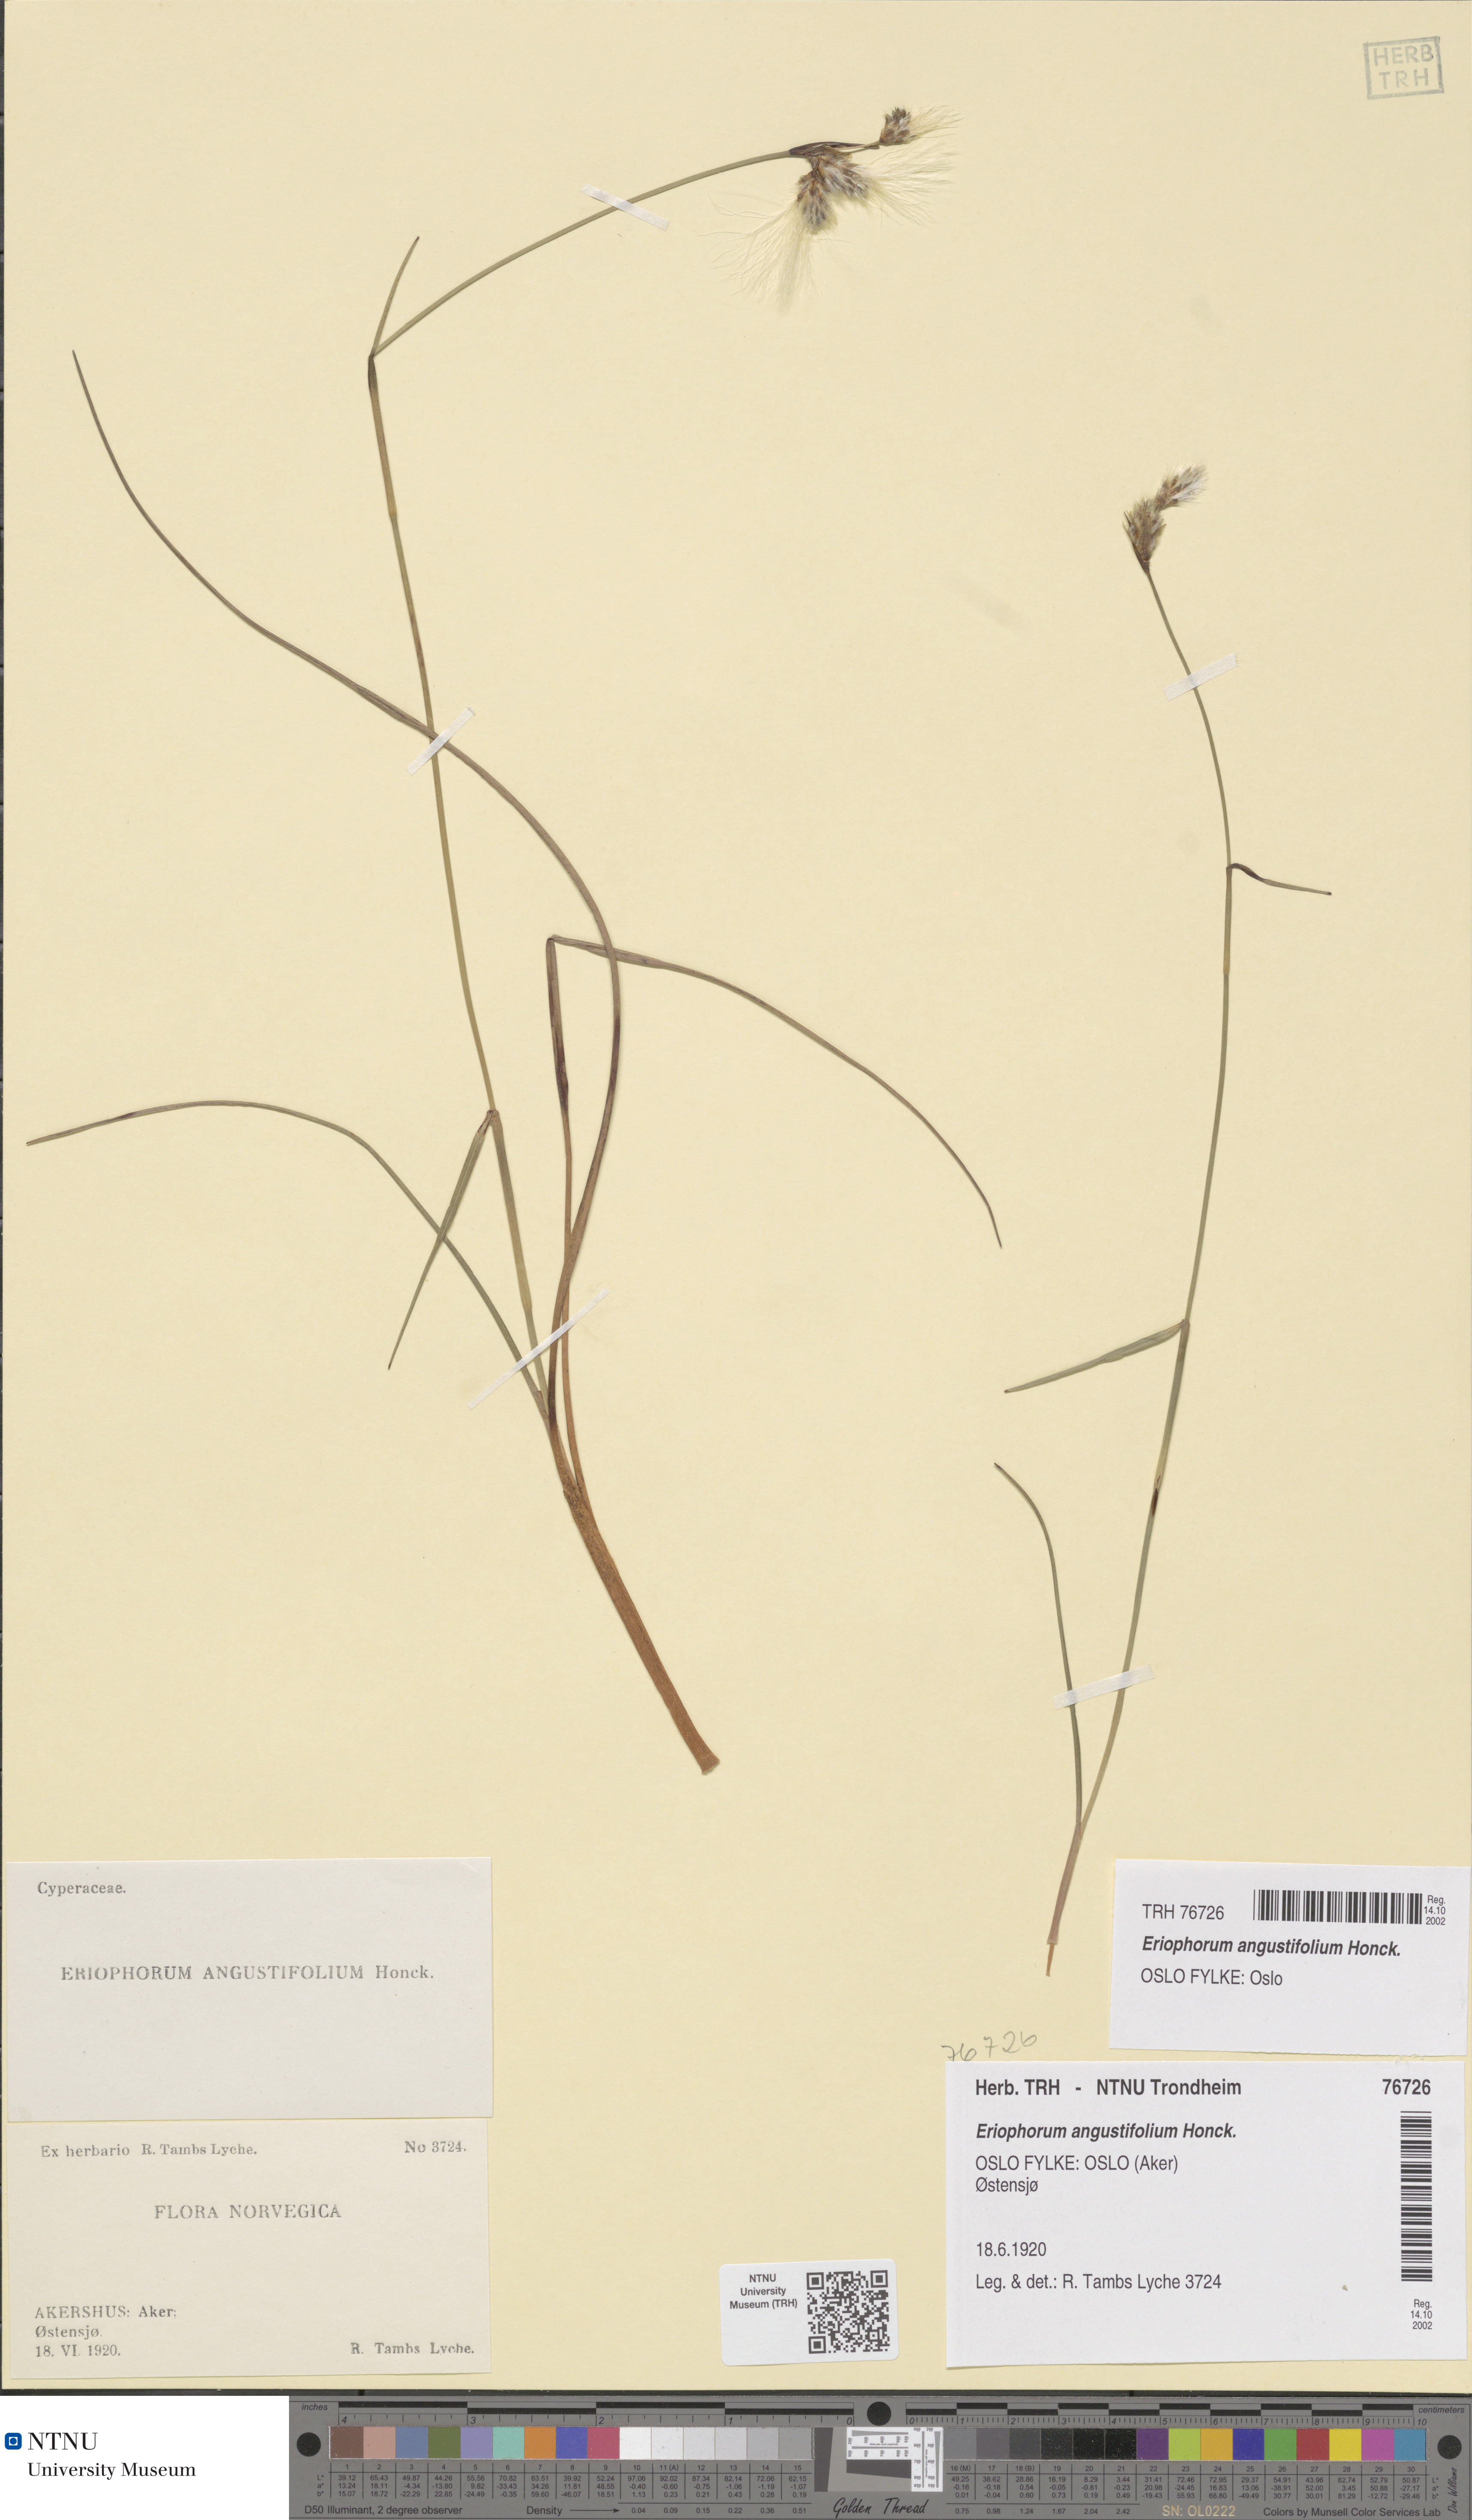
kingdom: Plantae
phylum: Tracheophyta
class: Liliopsida
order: Poales
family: Cyperaceae
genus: Eriophorum
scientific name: Eriophorum angustifolium
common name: Common cottongrass
